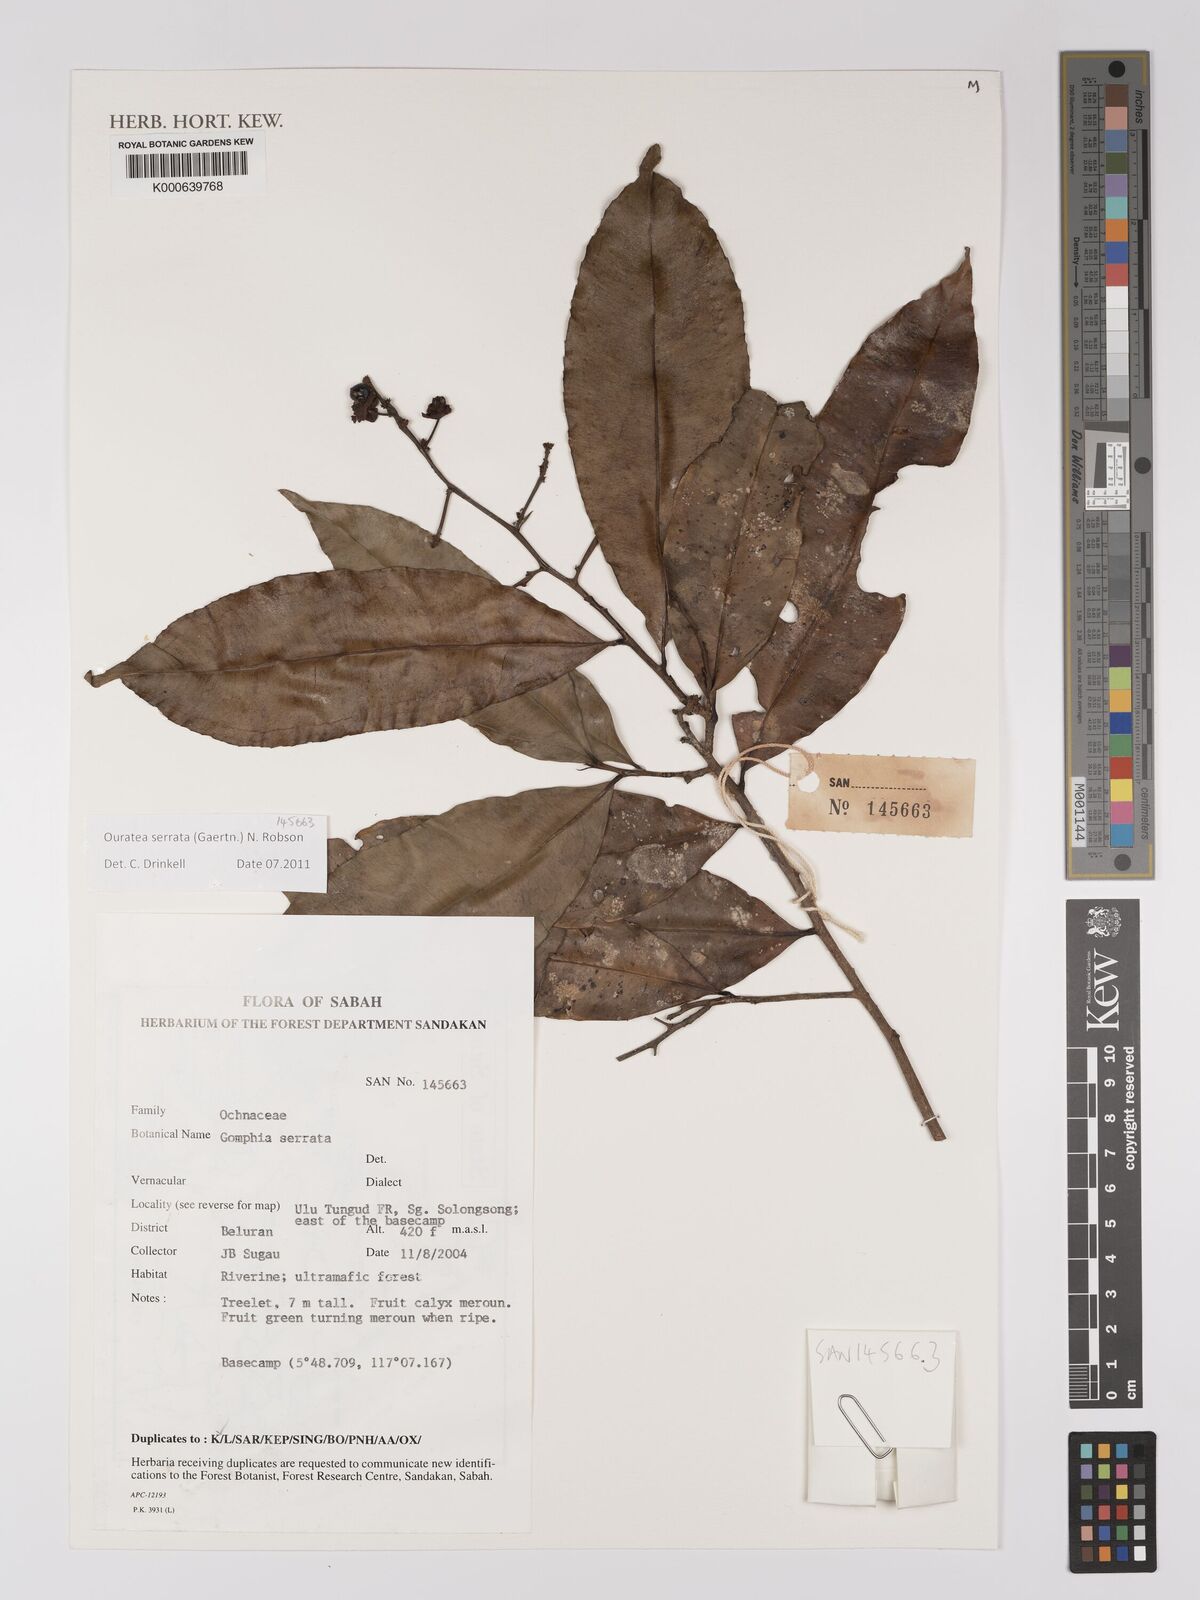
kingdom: Plantae
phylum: Tracheophyta
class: Magnoliopsida
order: Malpighiales
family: Ochnaceae
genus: Gomphia
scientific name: Gomphia serrata
